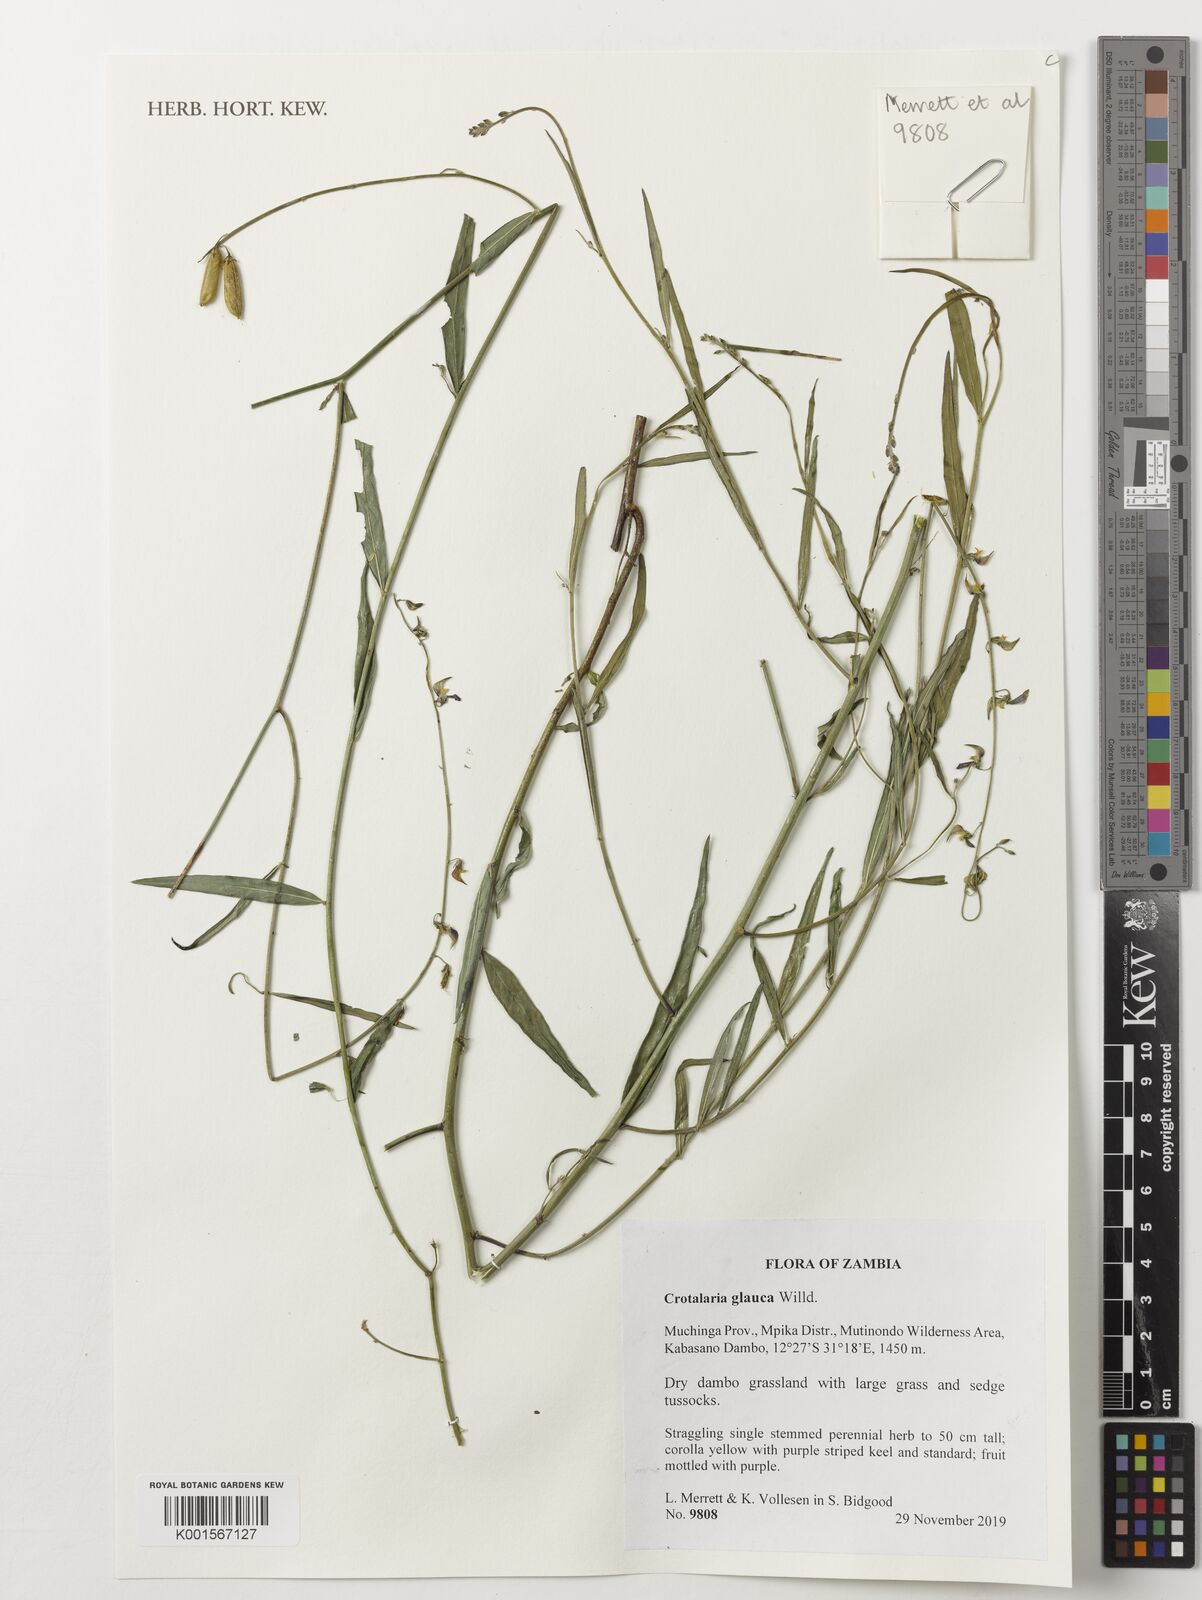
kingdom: Plantae
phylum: Tracheophyta
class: Magnoliopsida
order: Fabales
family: Fabaceae
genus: Crotalaria
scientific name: Crotalaria glauca
